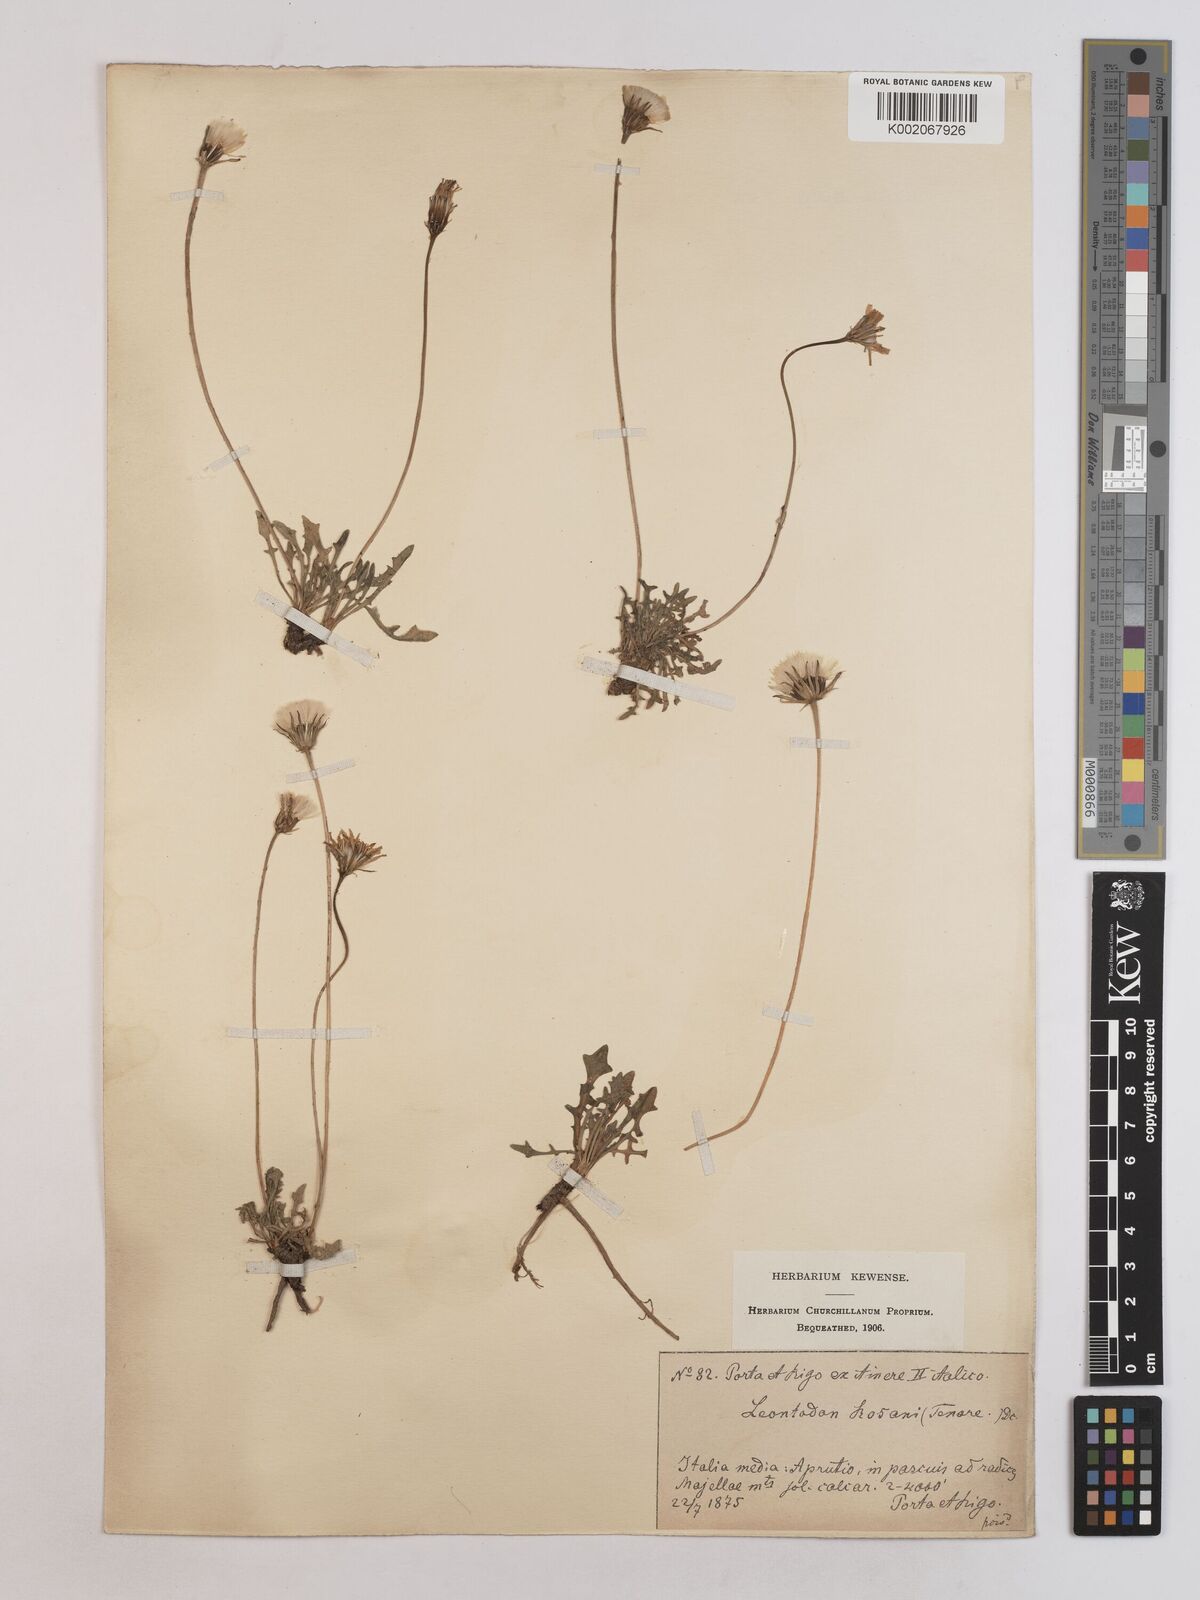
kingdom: Plantae
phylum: Tracheophyta
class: Magnoliopsida
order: Asterales
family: Asteraceae
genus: Leontodon
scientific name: Leontodon rosanoi
